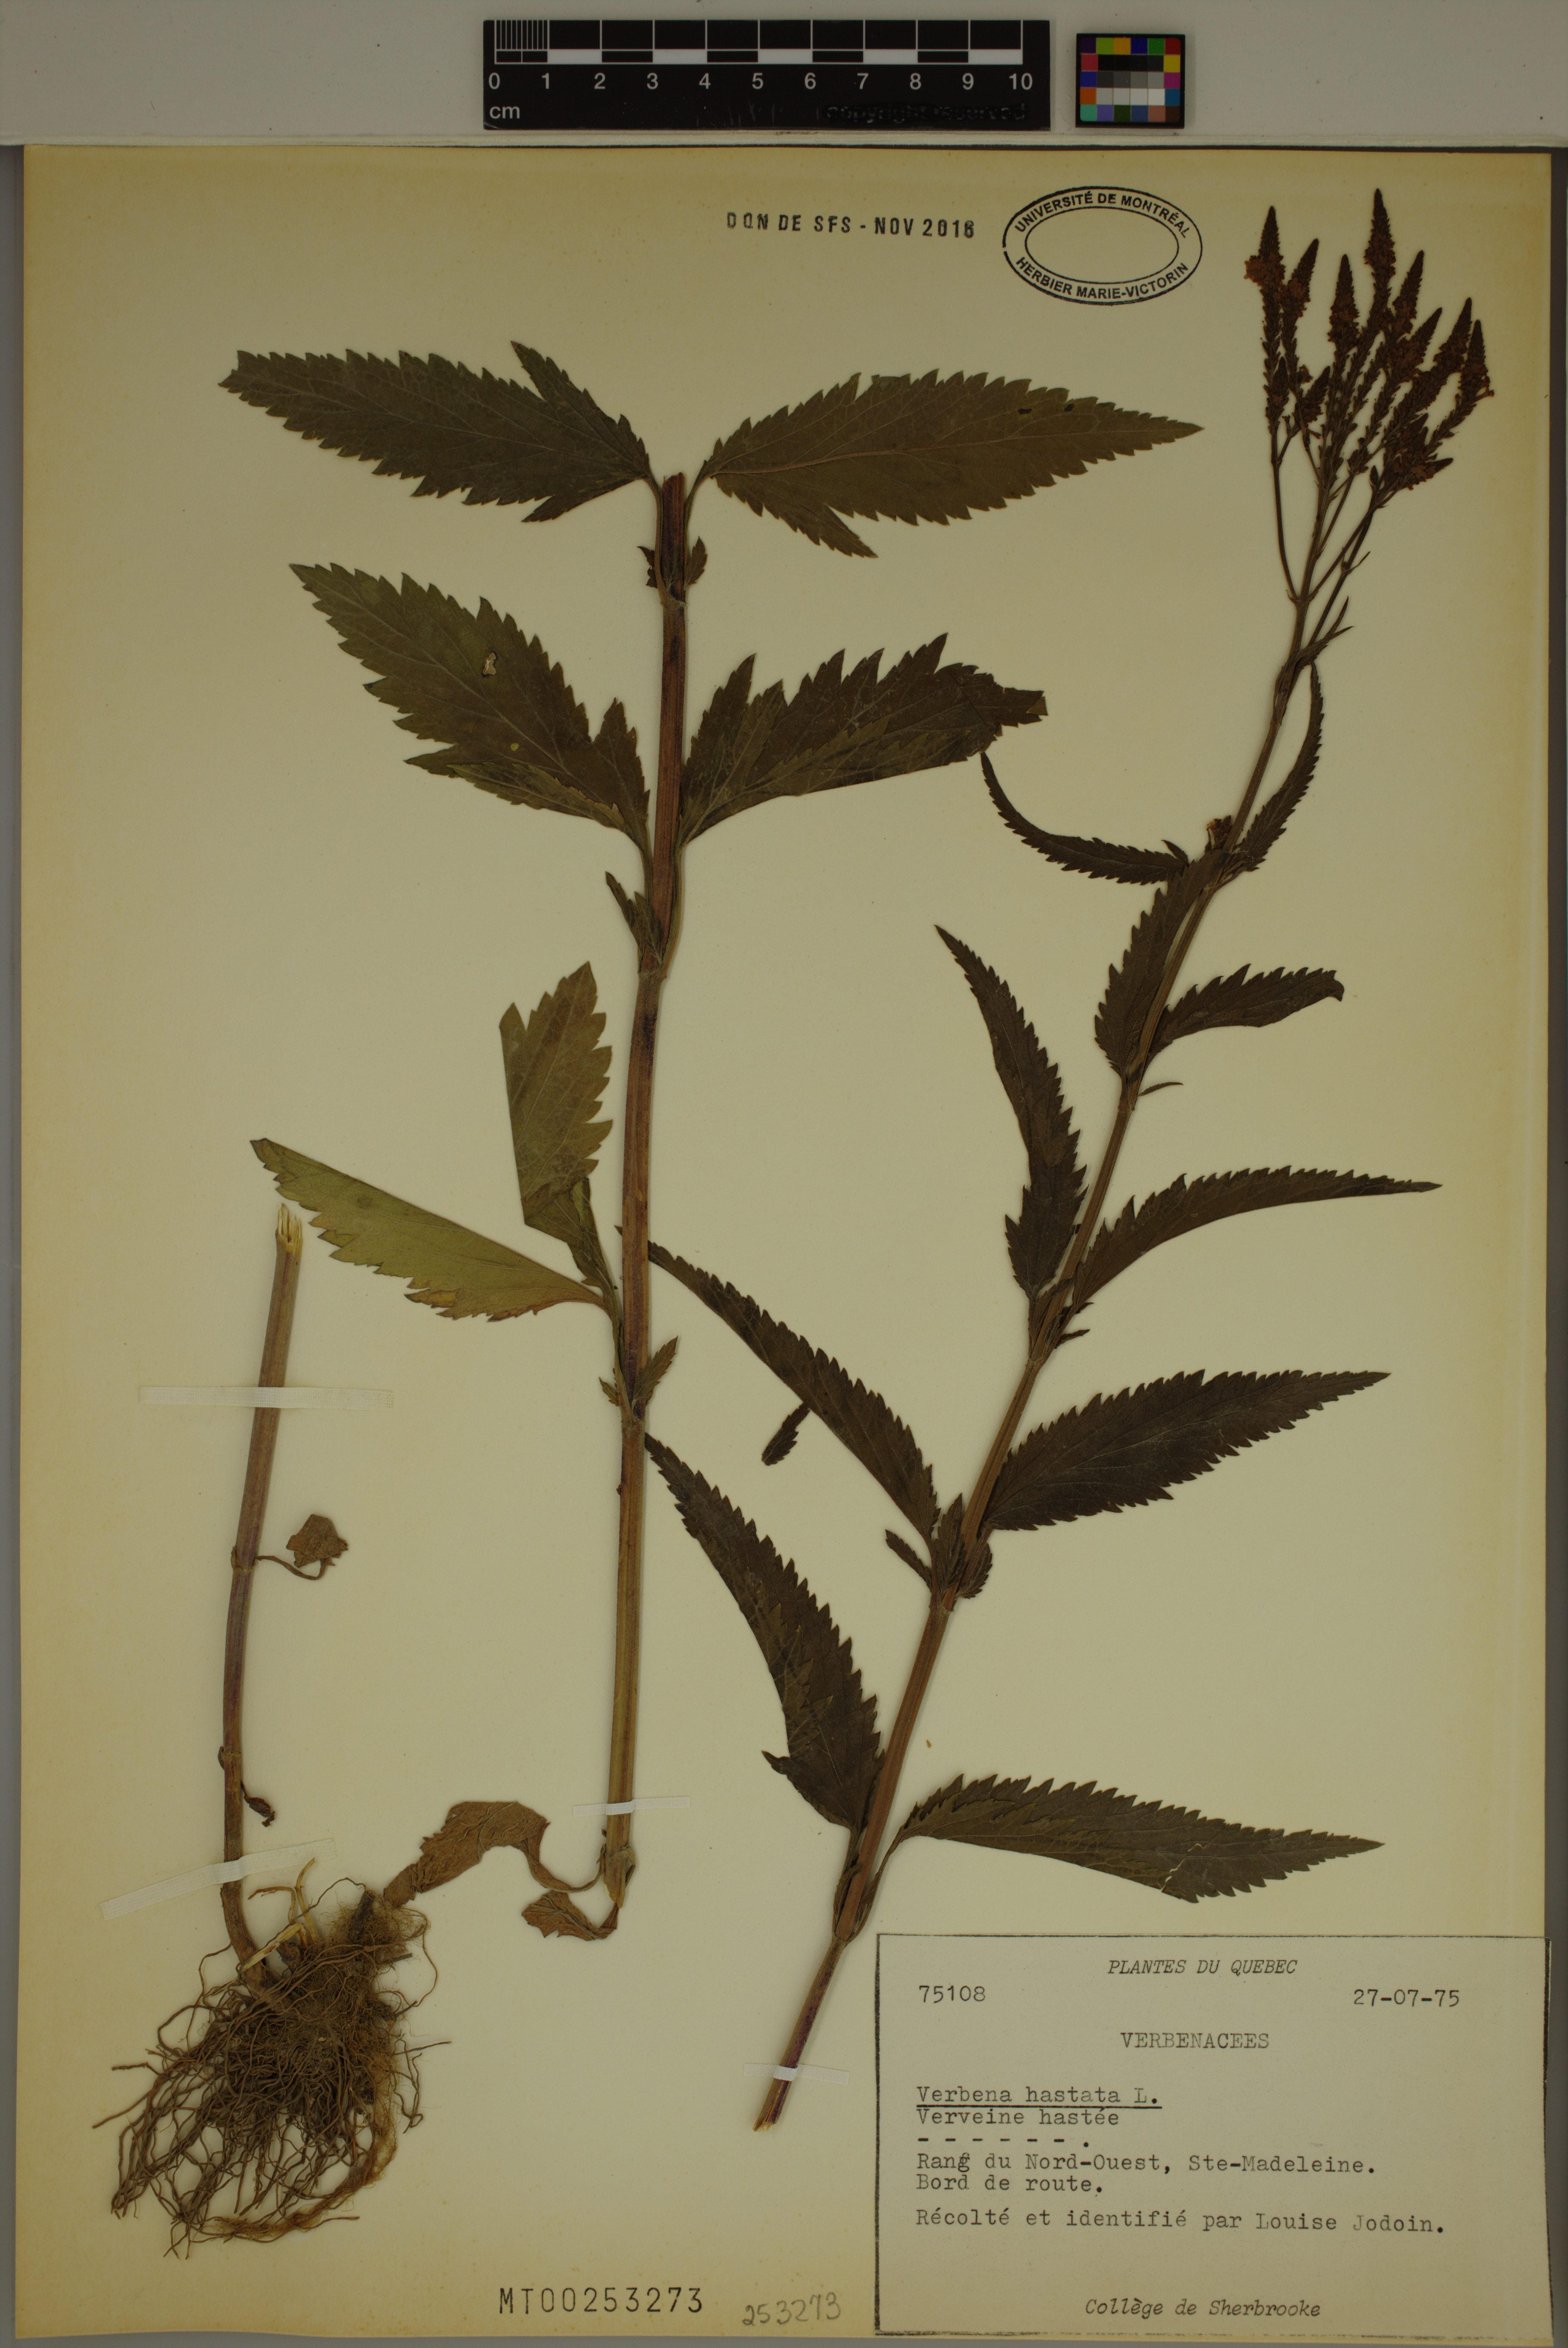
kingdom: Plantae
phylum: Tracheophyta
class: Magnoliopsida
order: Lamiales
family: Verbenaceae
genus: Verbena
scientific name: Verbena hastata
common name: American blue vervain
